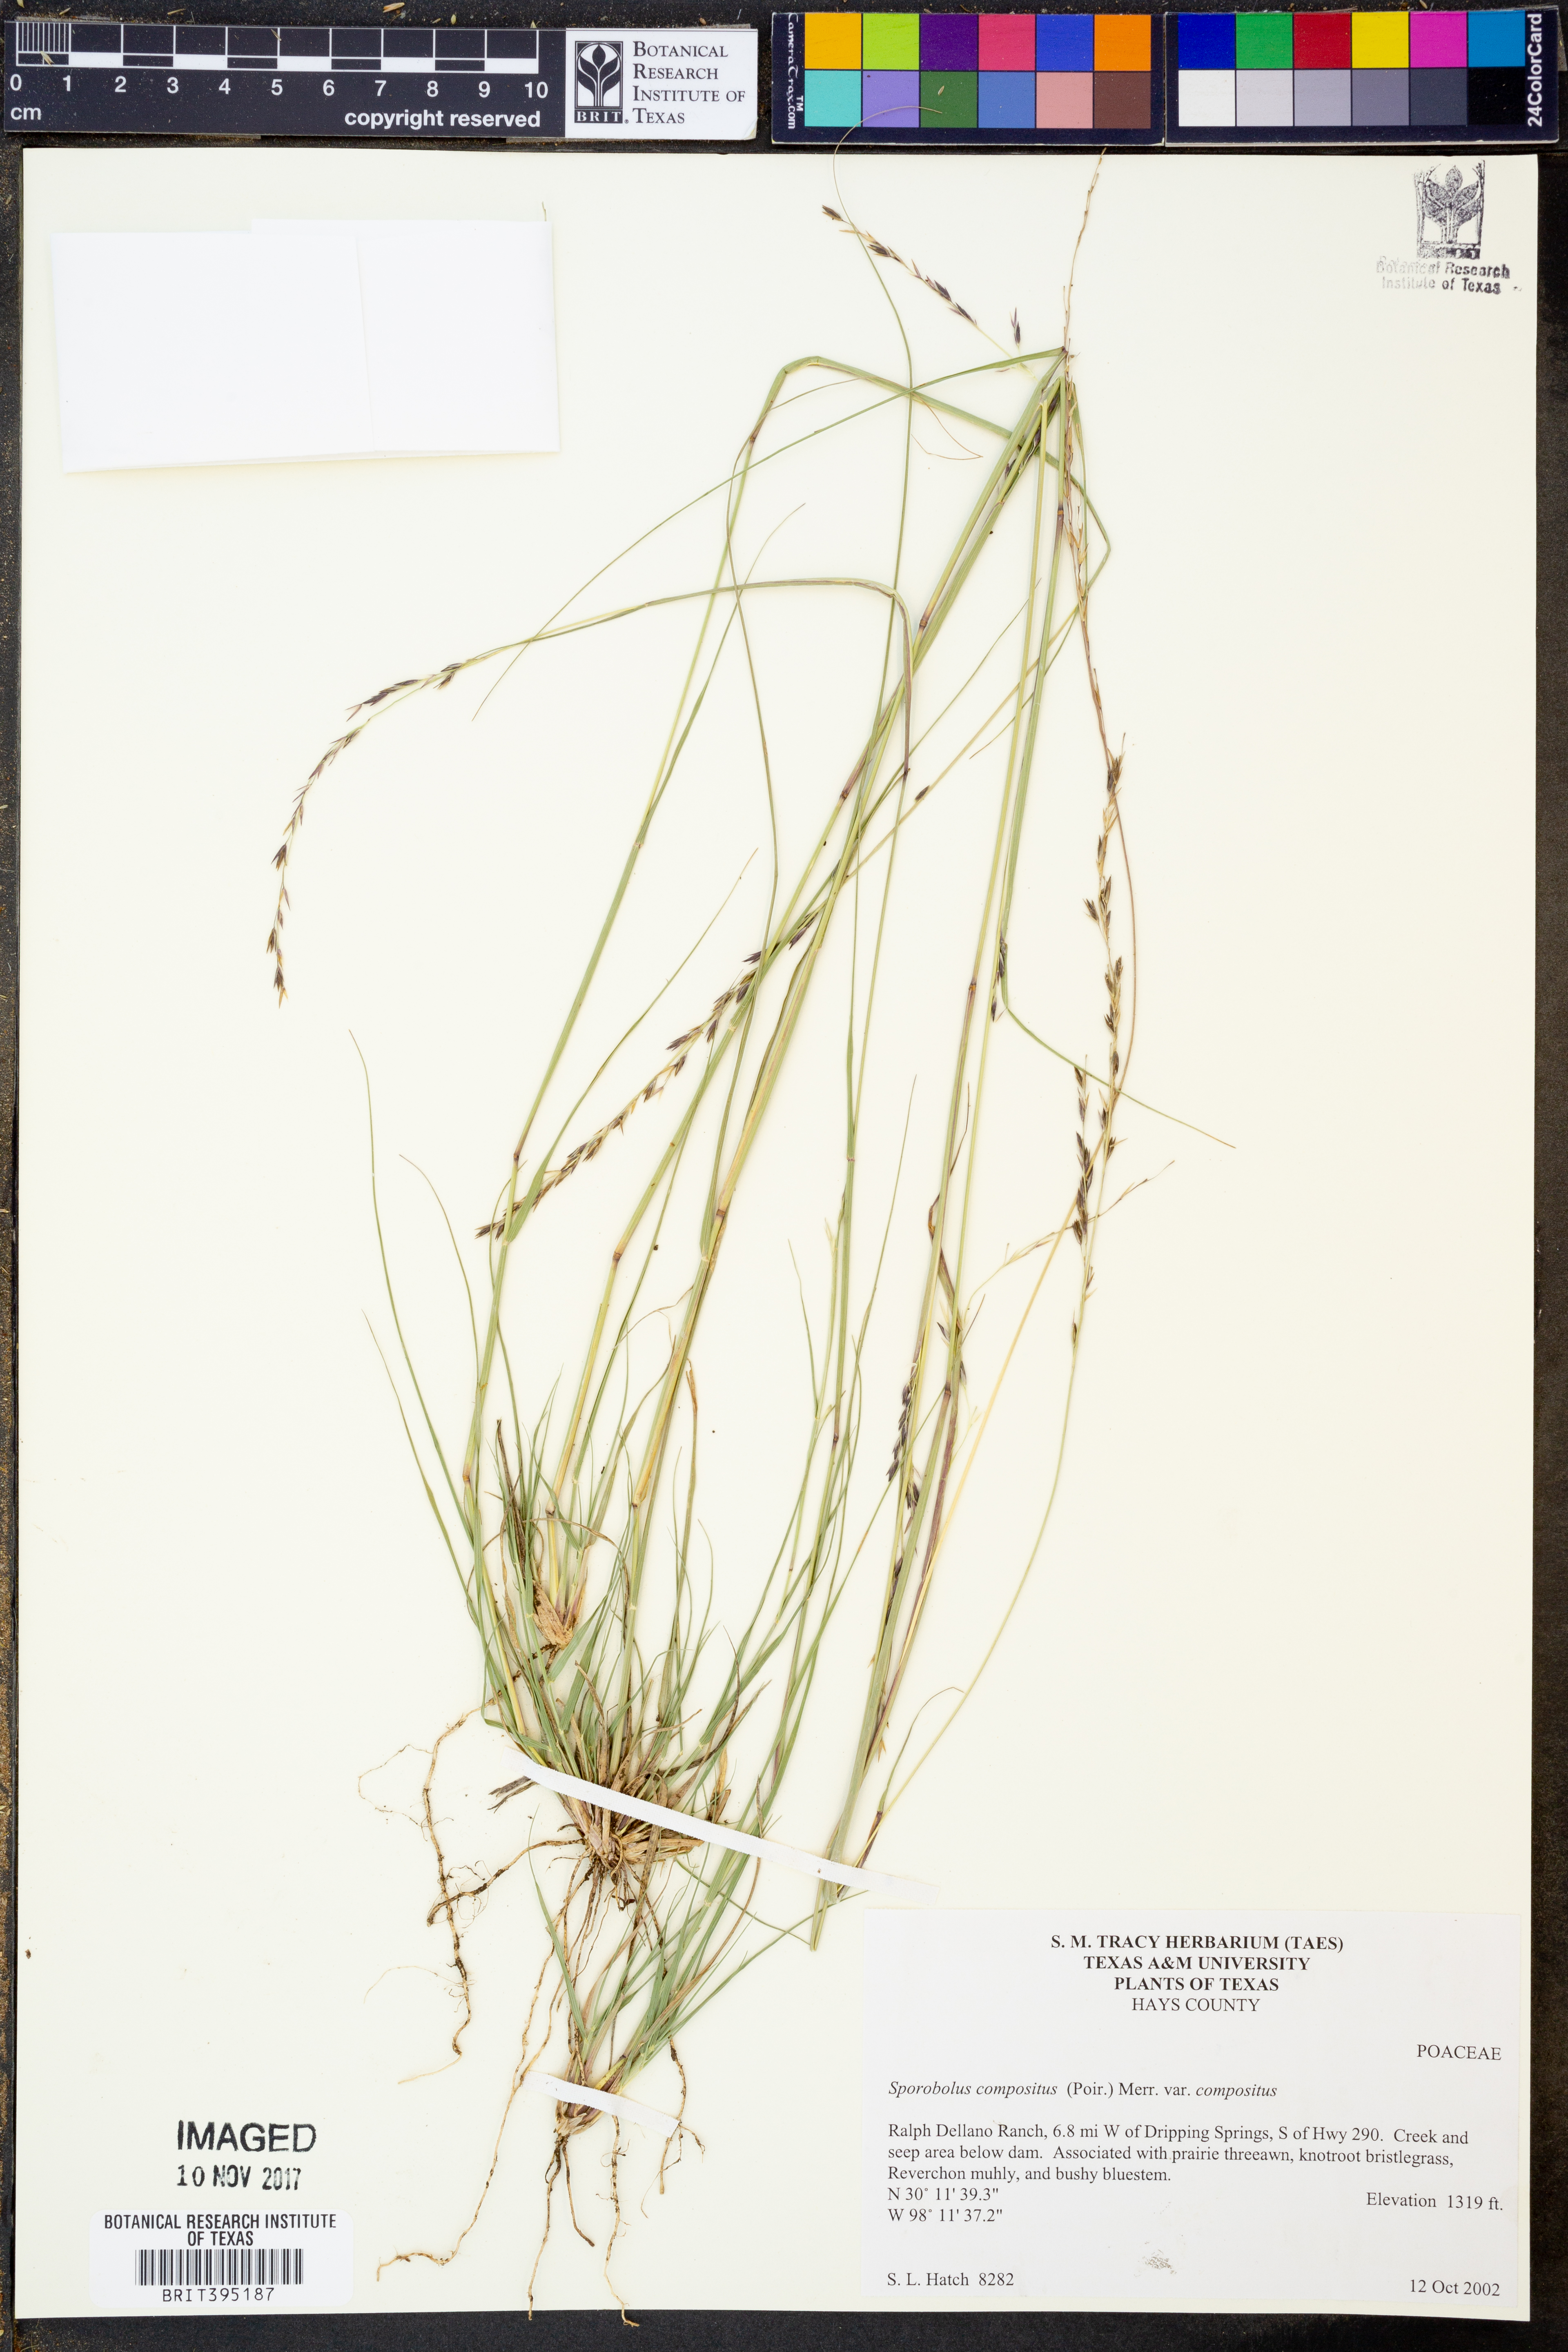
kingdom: Plantae
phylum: Tracheophyta
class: Liliopsida
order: Poales
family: Poaceae
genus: Sporobolus
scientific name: Sporobolus compositus
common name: Rough dropseed
